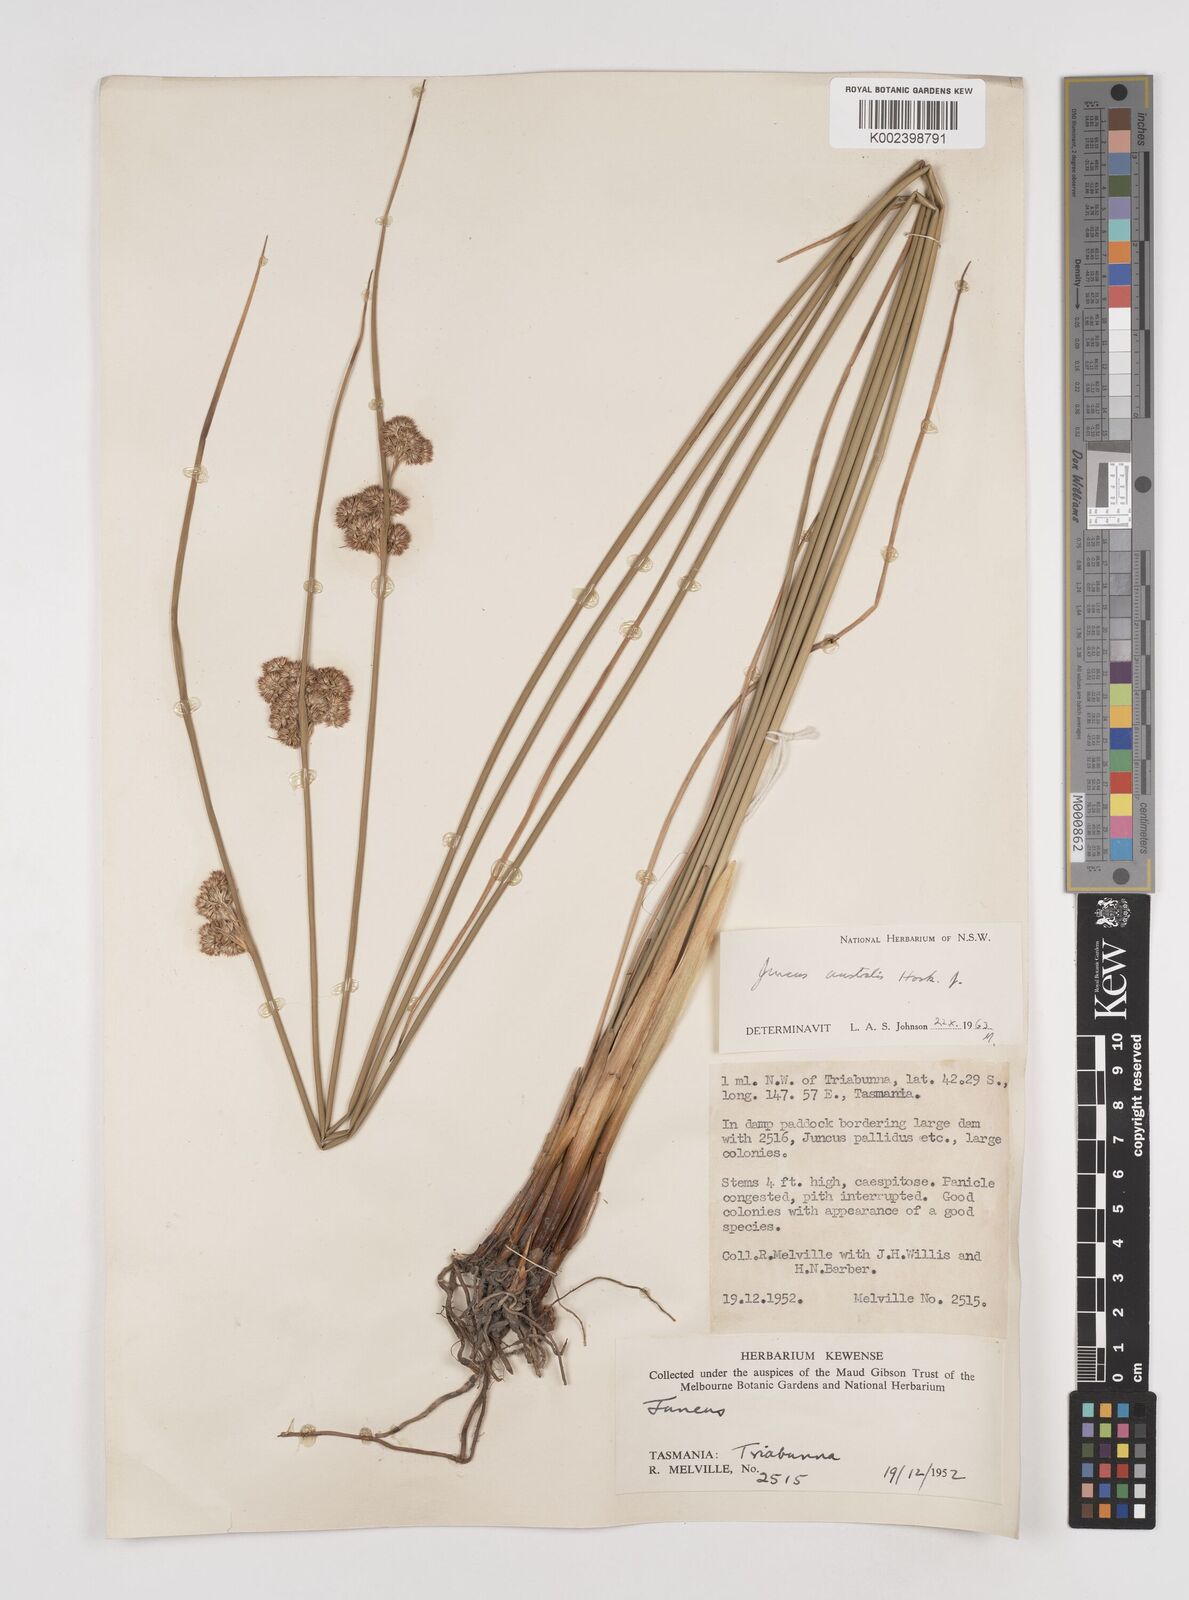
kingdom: Plantae
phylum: Tracheophyta
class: Liliopsida
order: Poales
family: Juncaceae
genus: Juncus
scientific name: Juncus australis
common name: Austral rush
